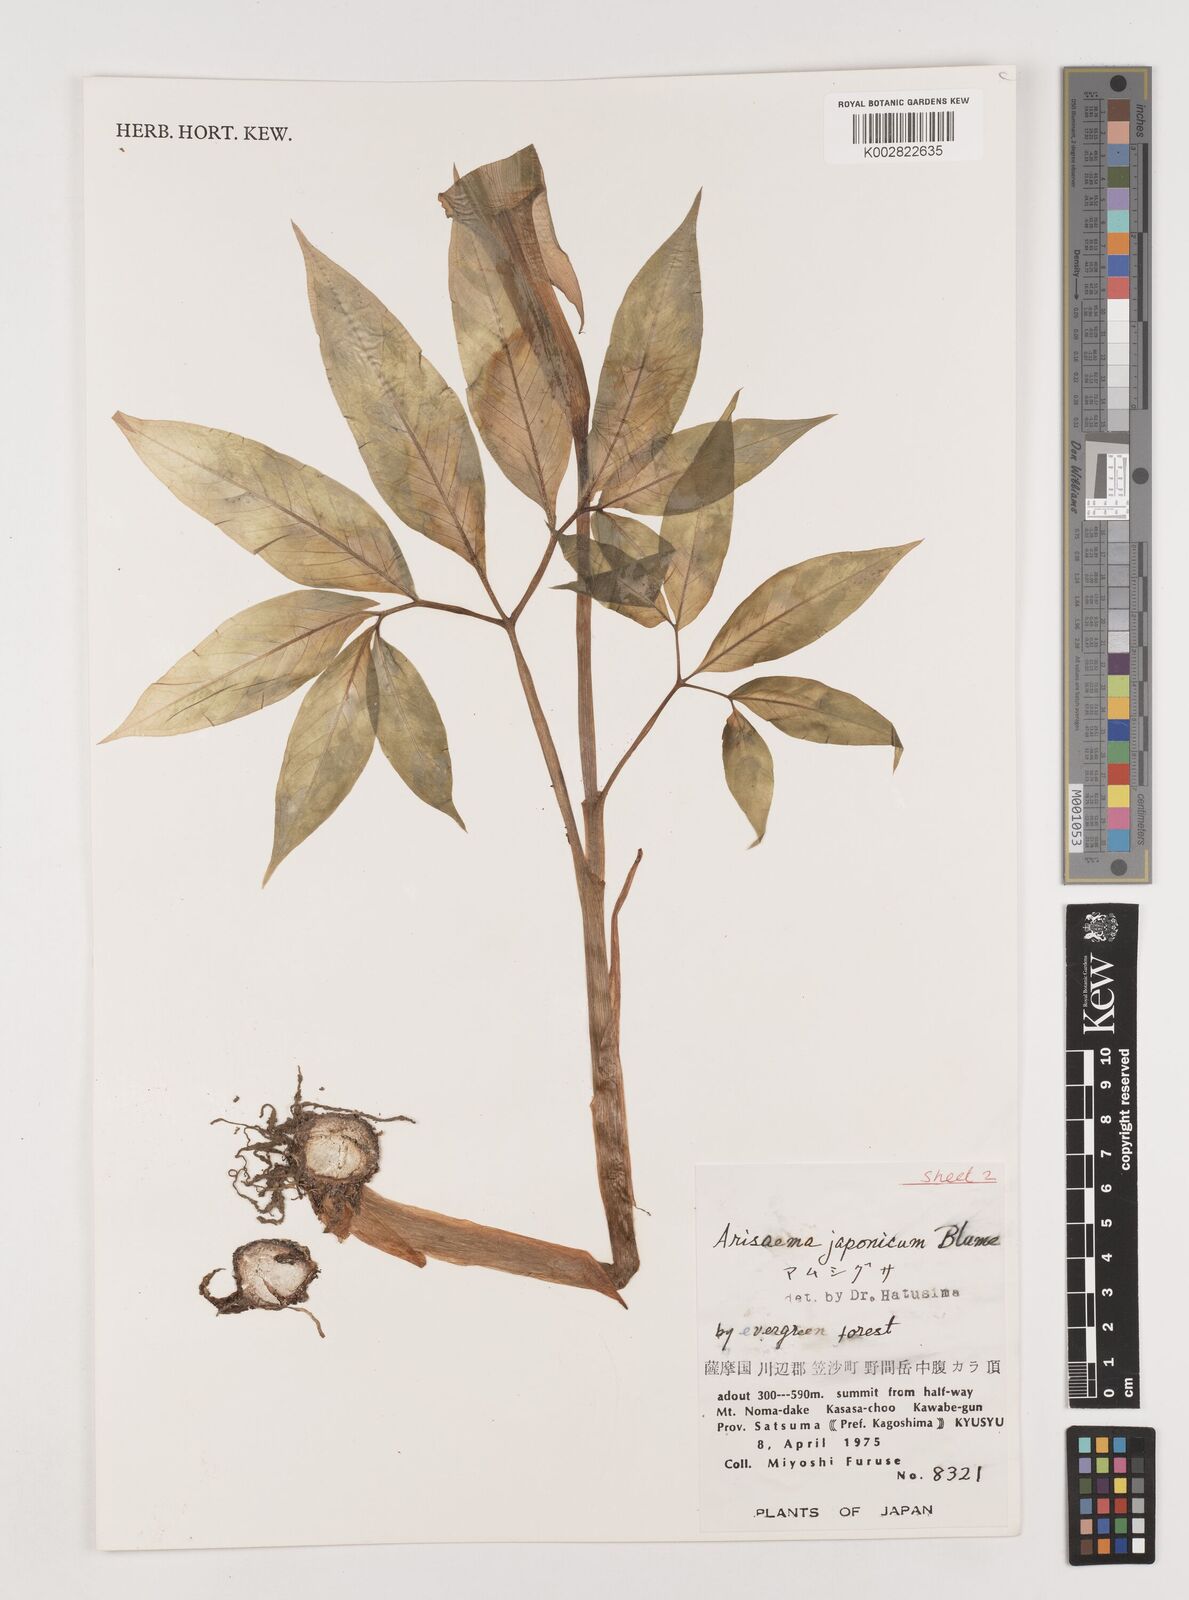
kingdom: Plantae
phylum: Tracheophyta
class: Liliopsida
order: Alismatales
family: Araceae
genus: Arisaema
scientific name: Arisaema serratum
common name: Japanese arisaema
